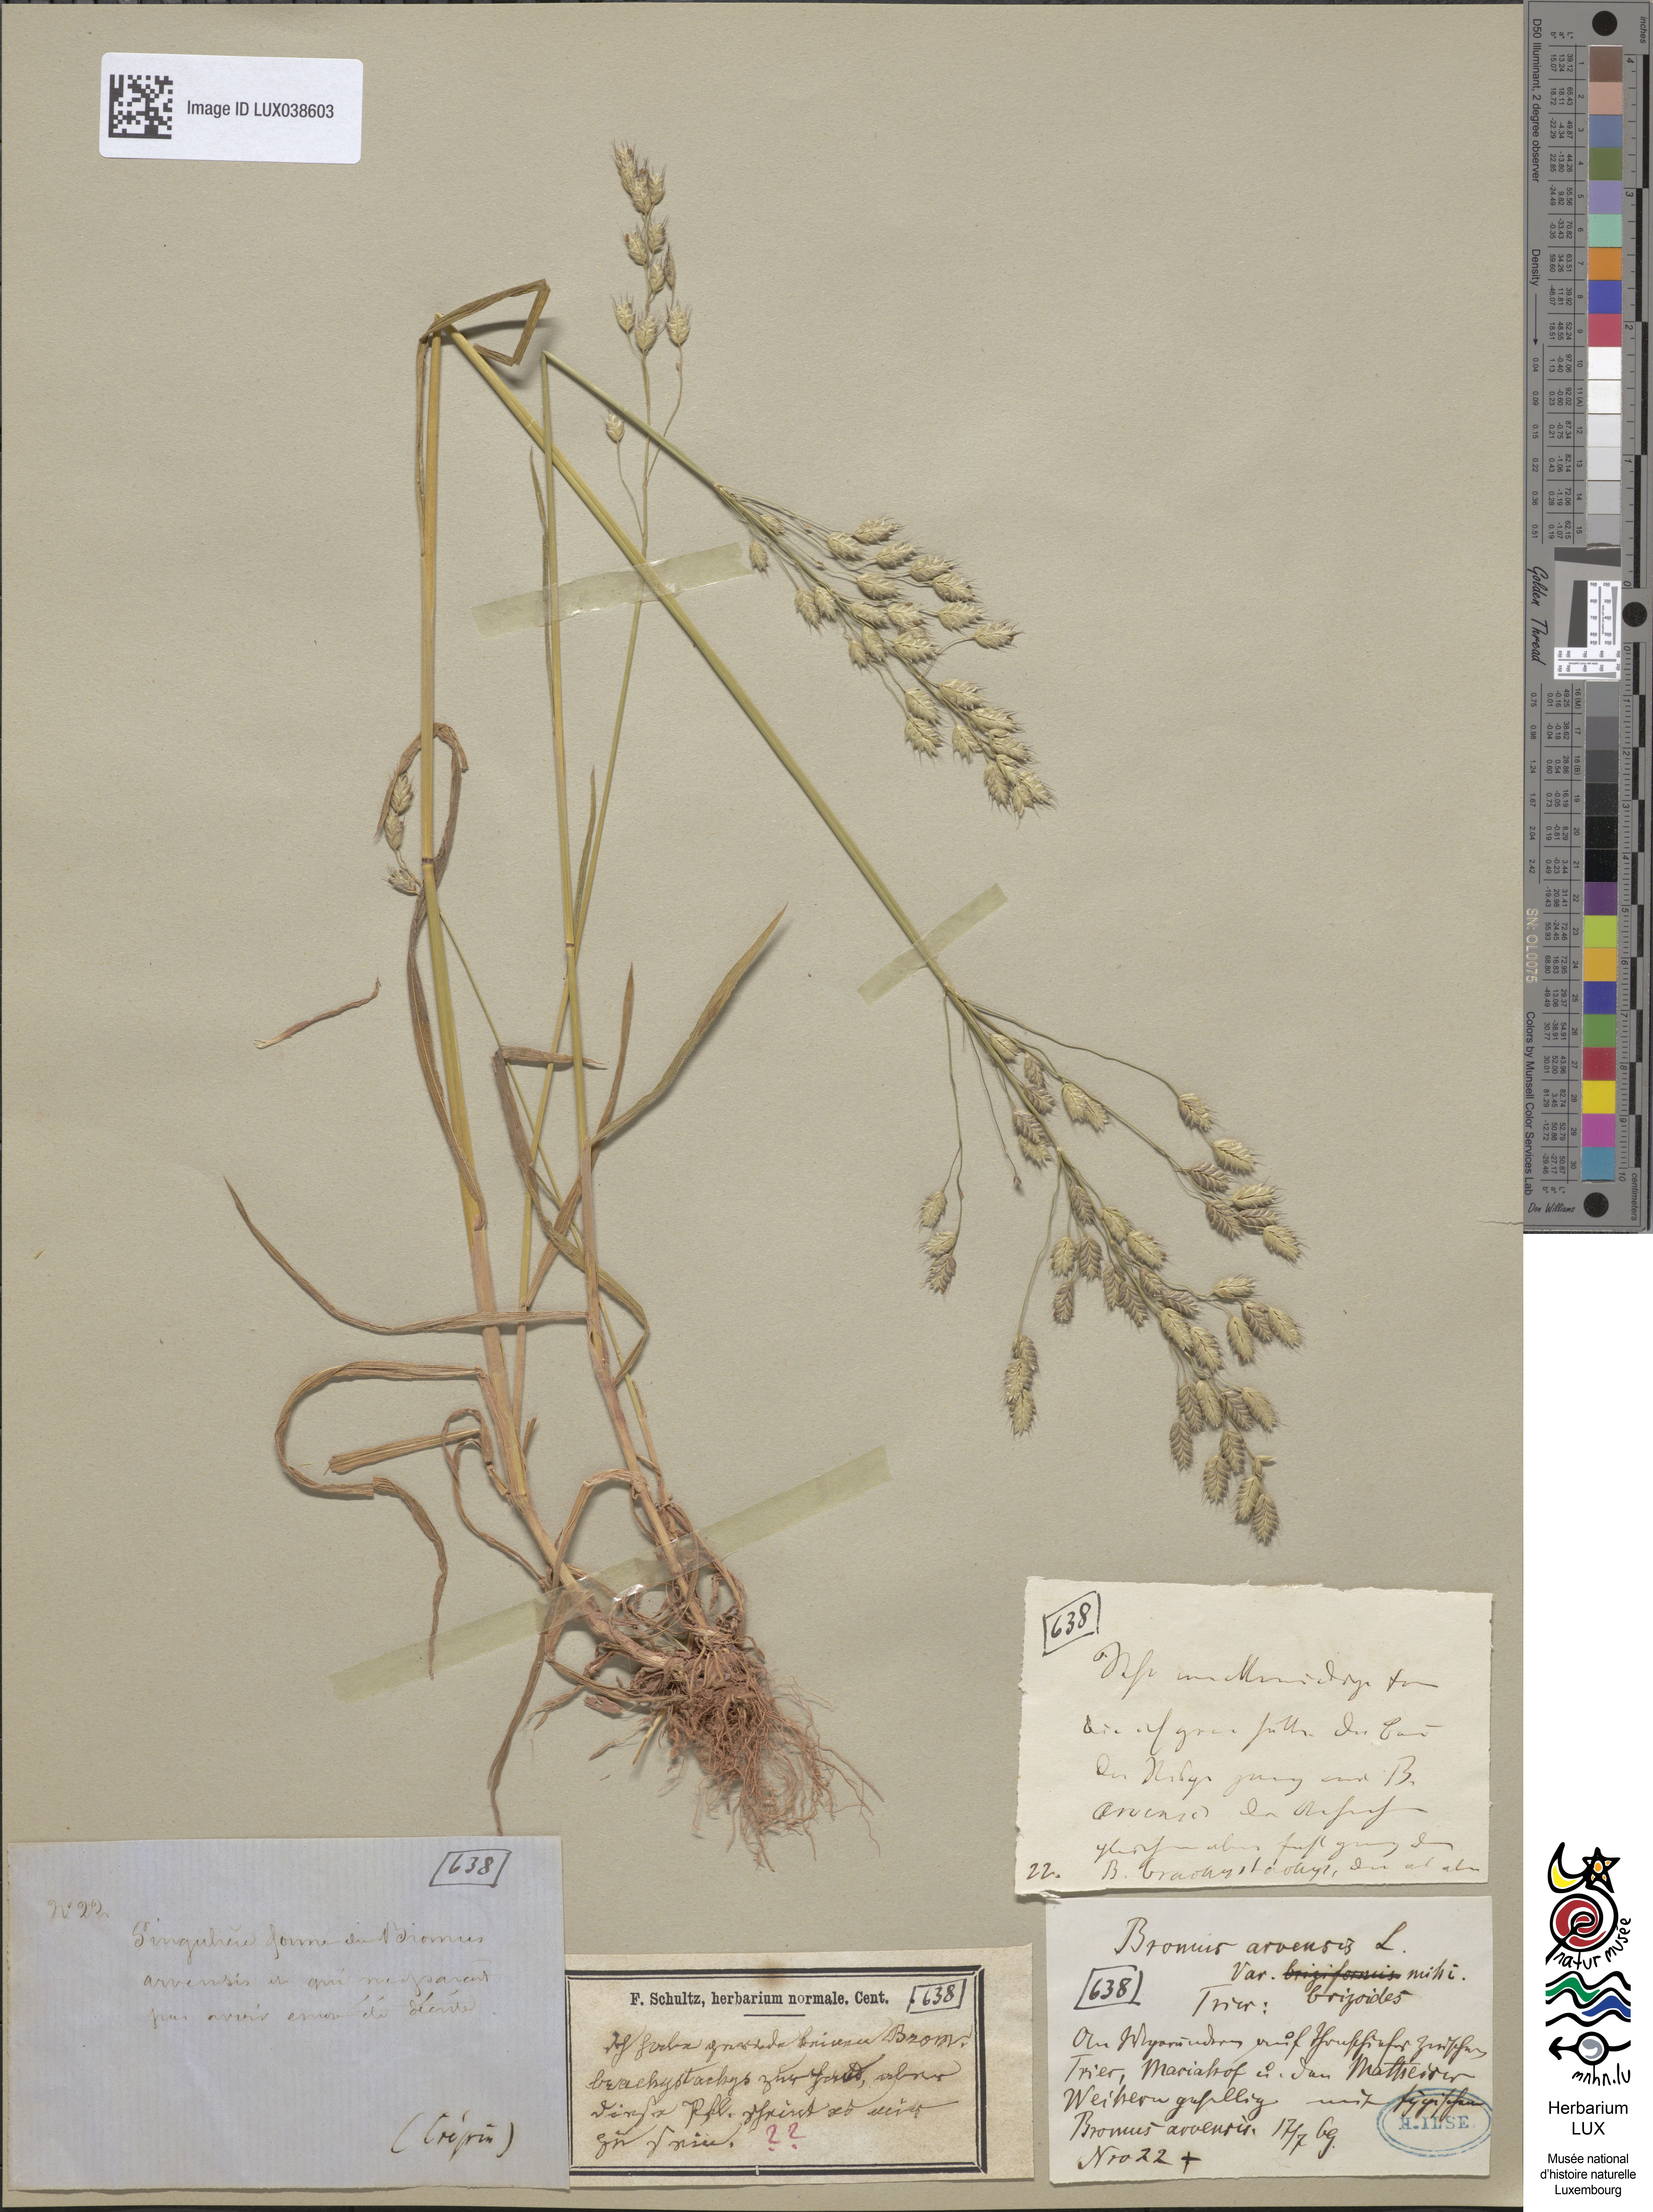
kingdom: Plantae
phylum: Tracheophyta
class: Liliopsida
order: Poales
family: Poaceae
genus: Bromus
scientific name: Bromus arvensis
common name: Field brome
